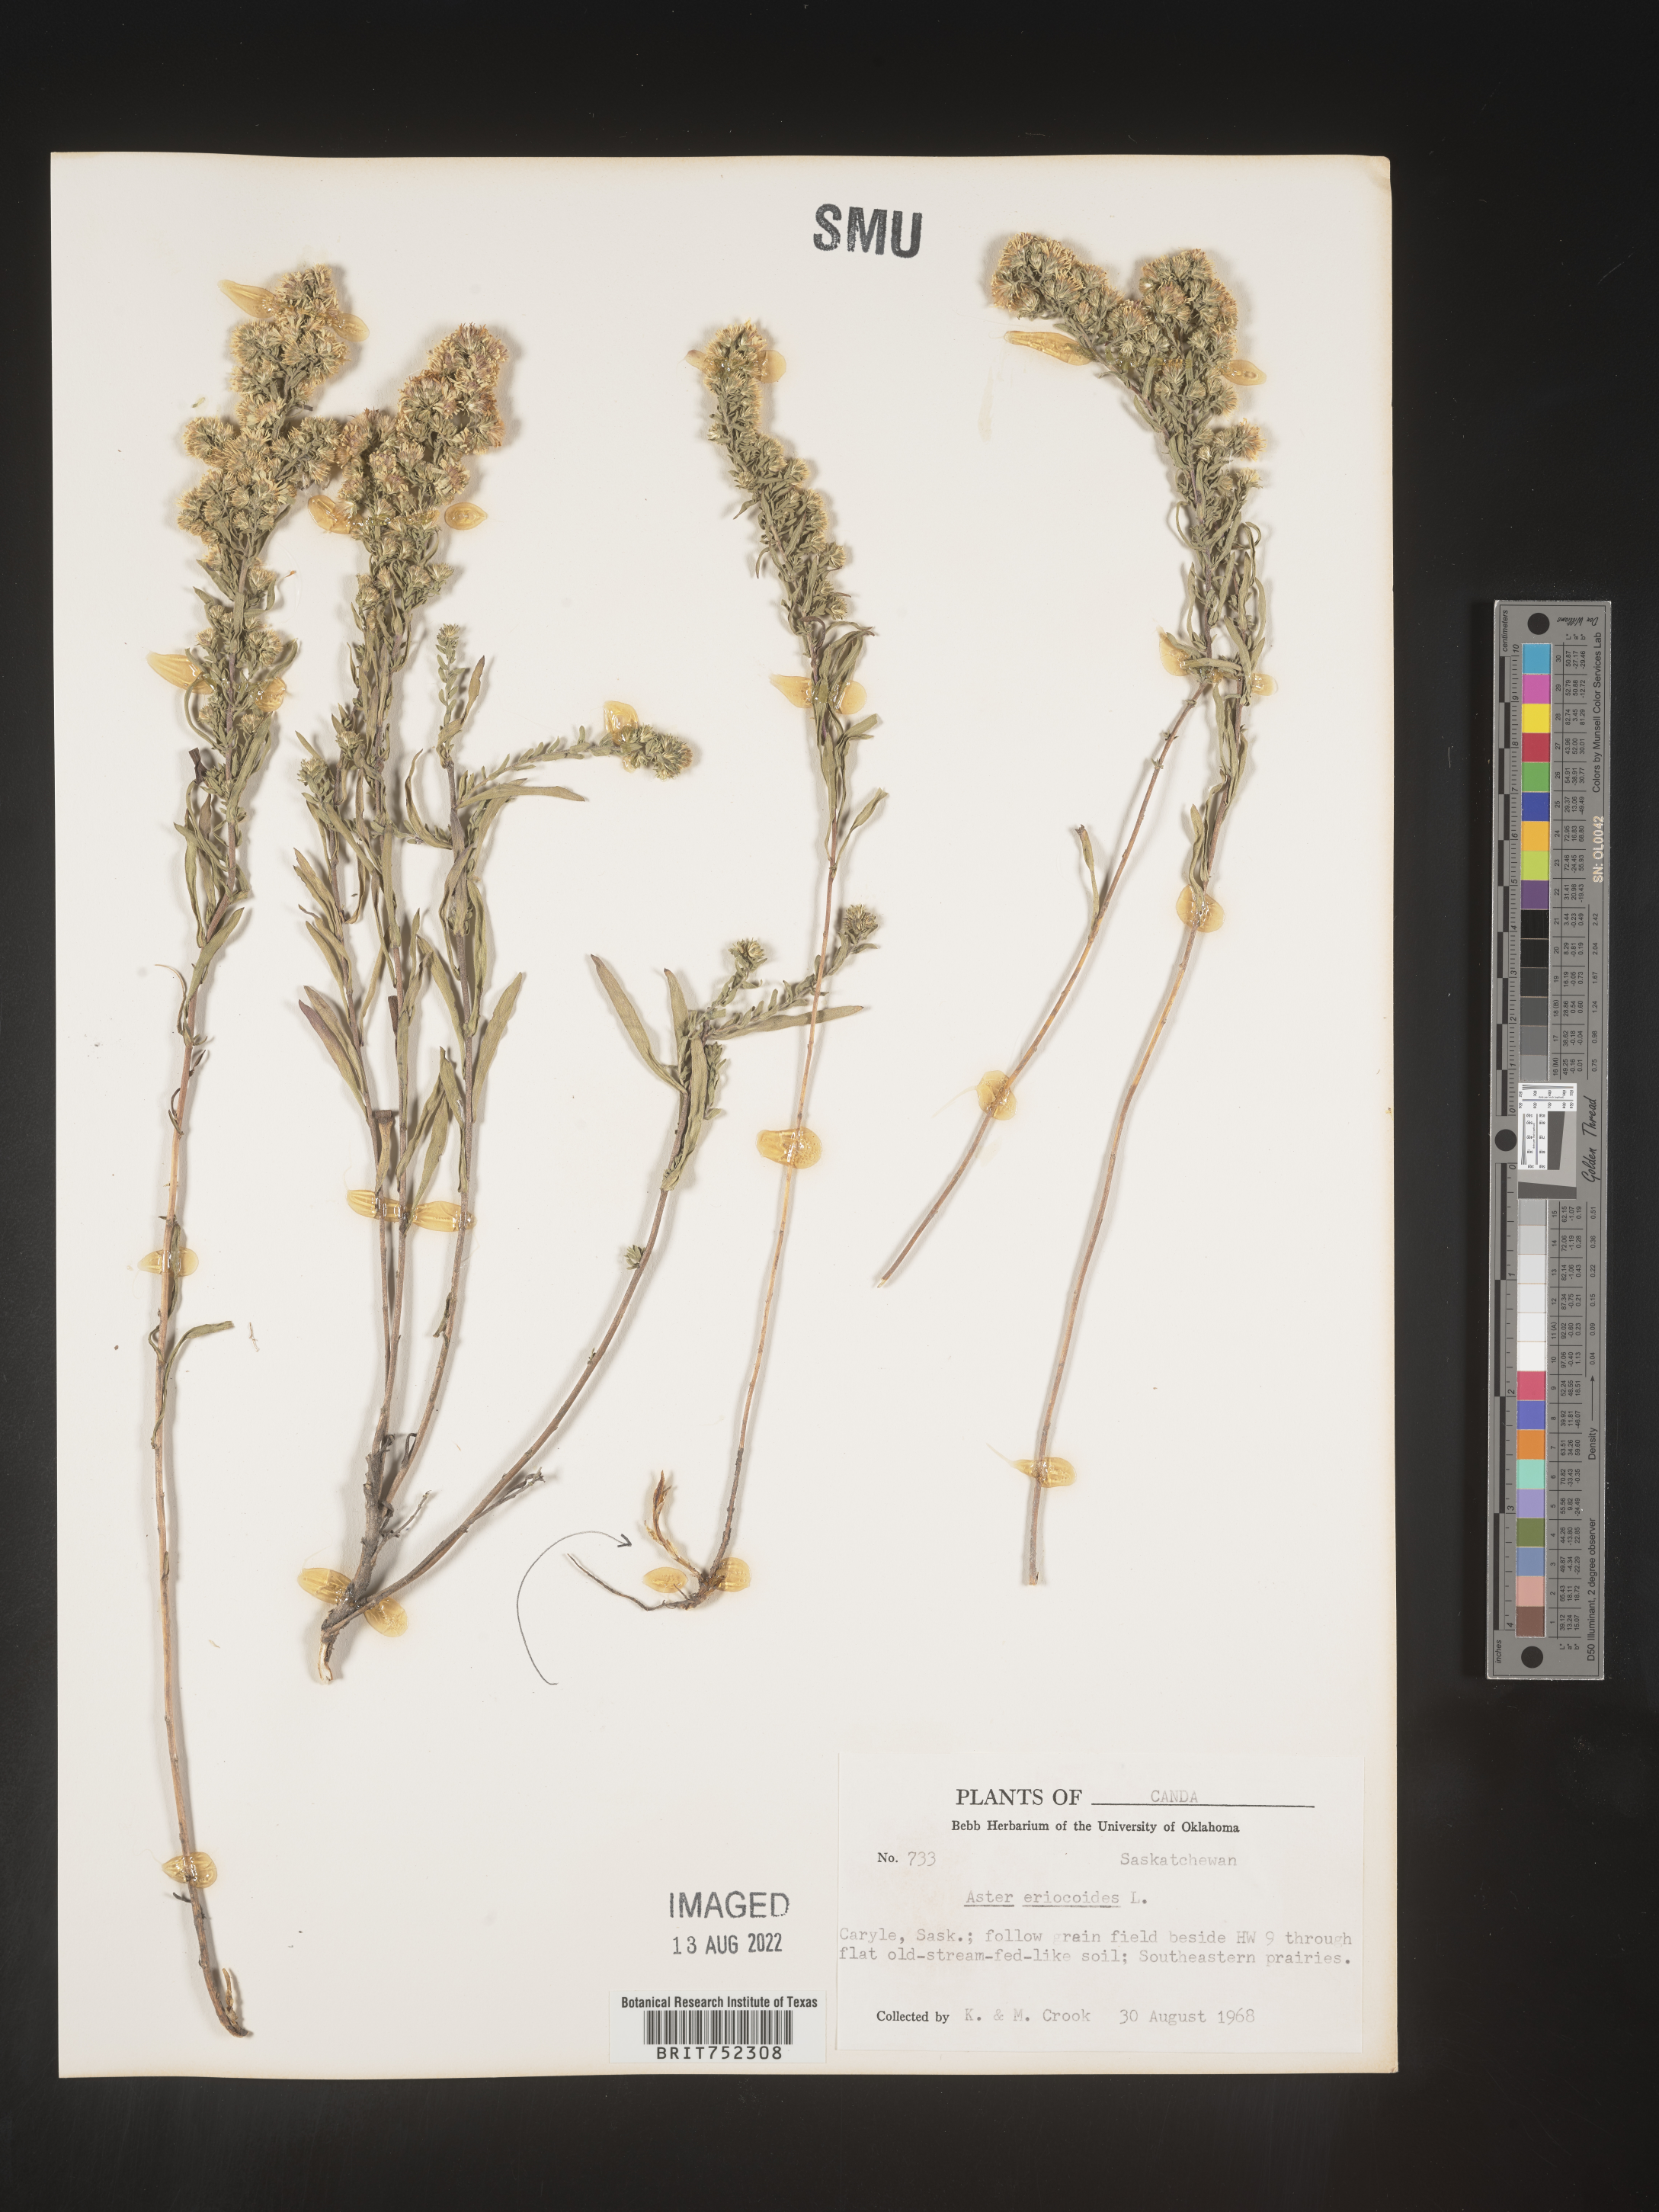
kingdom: Plantae
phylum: Tracheophyta
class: Magnoliopsida
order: Asterales
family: Asteraceae
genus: Symphyotrichum
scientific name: Symphyotrichum falcatum
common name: Creeping white prairie aster
